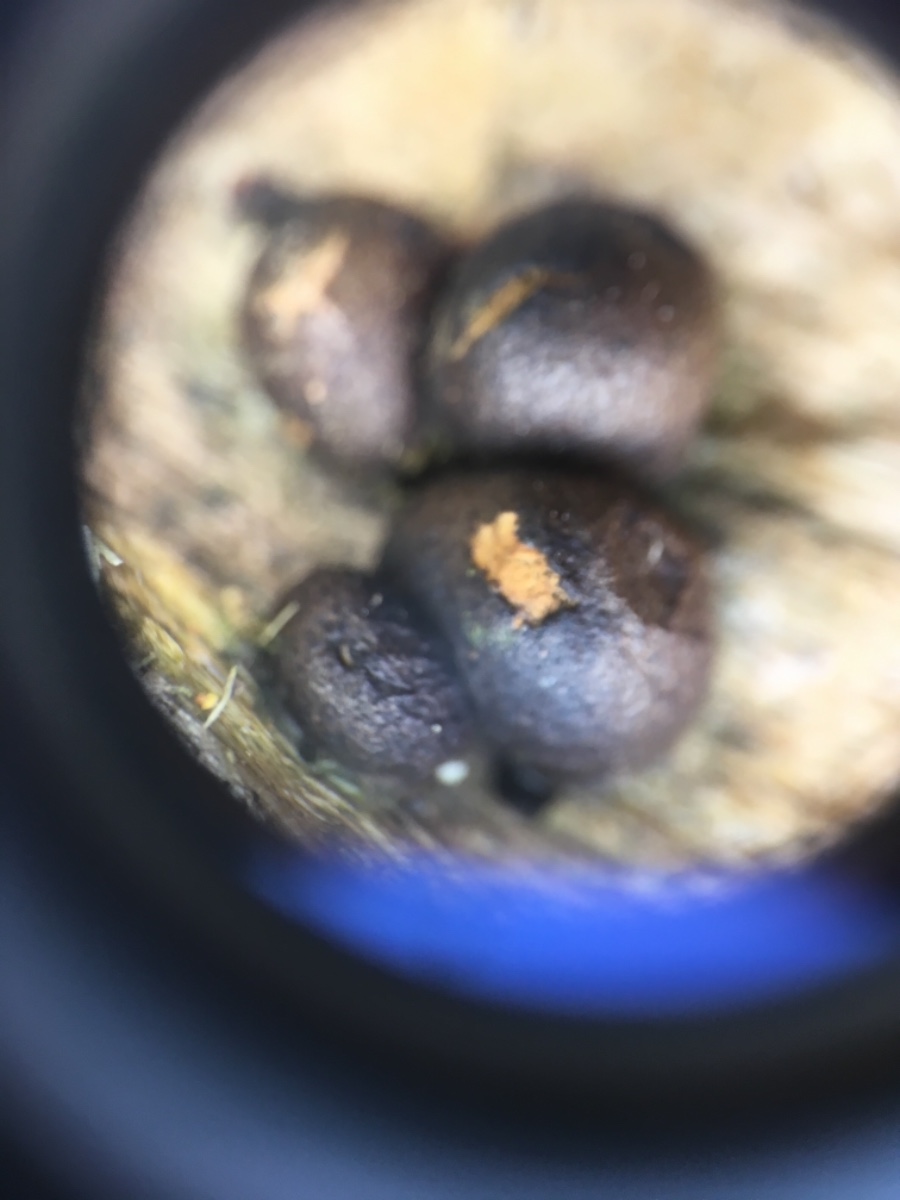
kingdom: Protozoa
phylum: Mycetozoa
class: Myxomycetes
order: Cribrariales
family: Tubiferaceae
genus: Lycogala
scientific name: Lycogala epidendrum
